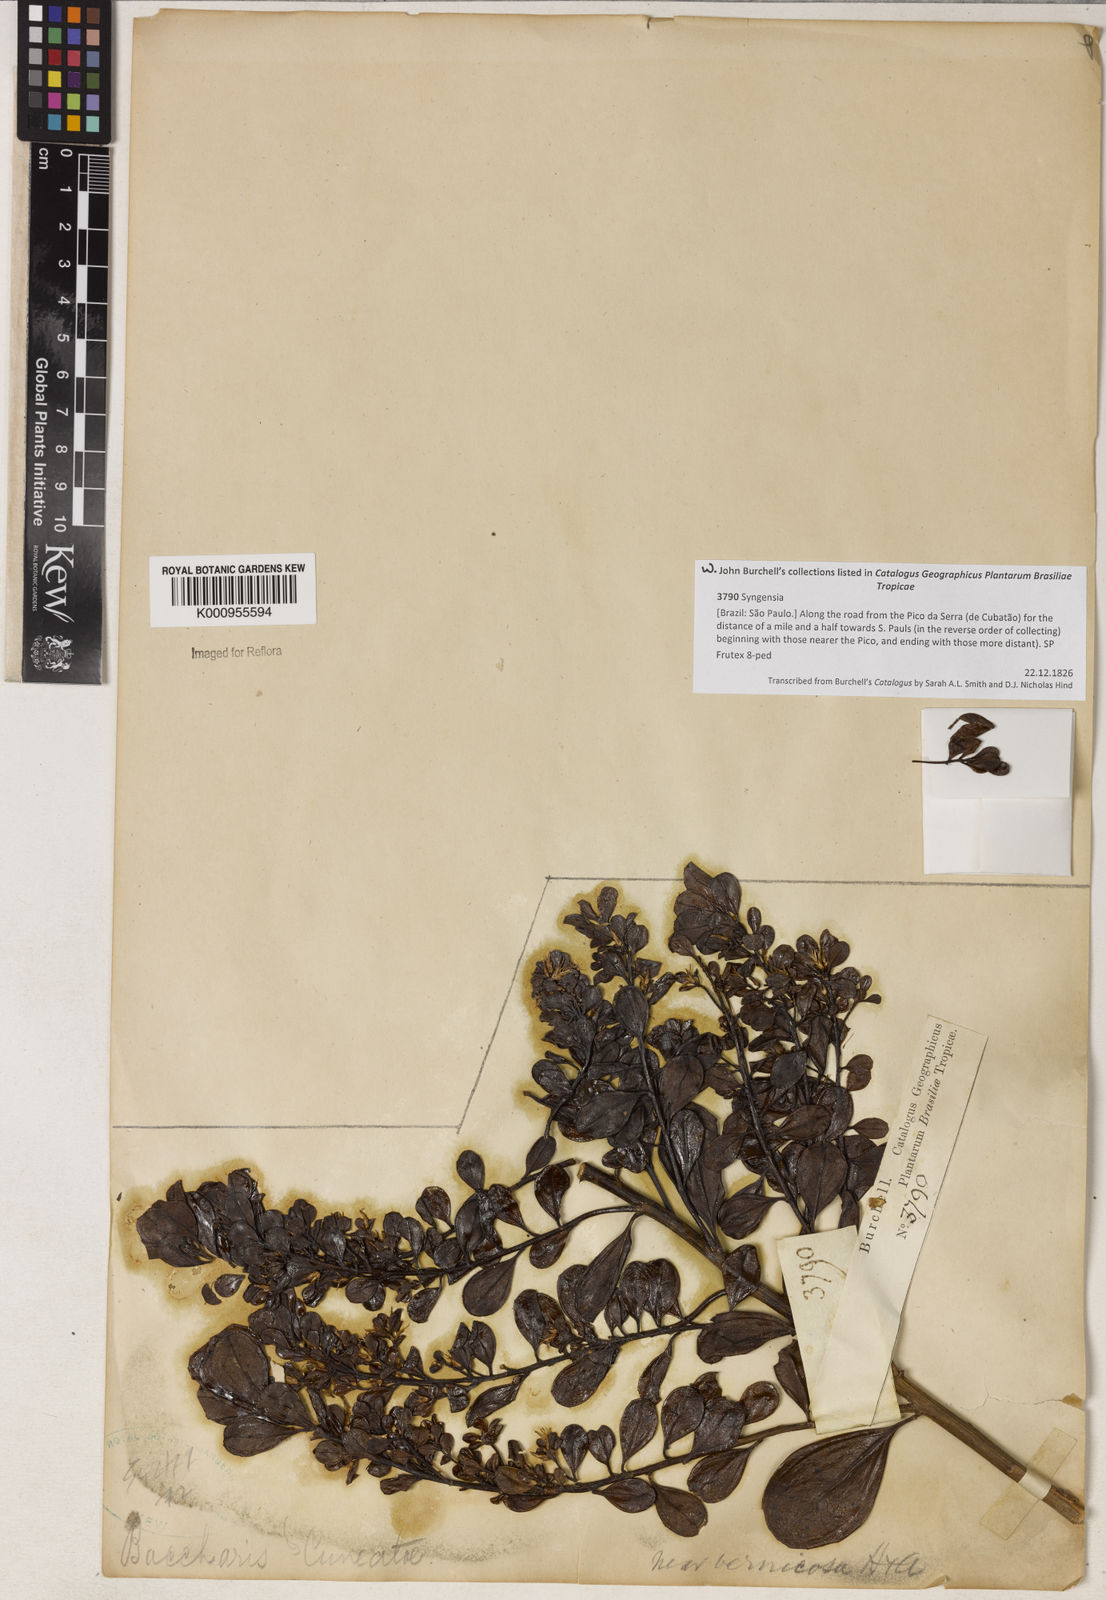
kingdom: Plantae
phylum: Tracheophyta
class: Magnoliopsida
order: Asterales
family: Asteraceae
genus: Baccharis
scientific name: Baccharis
